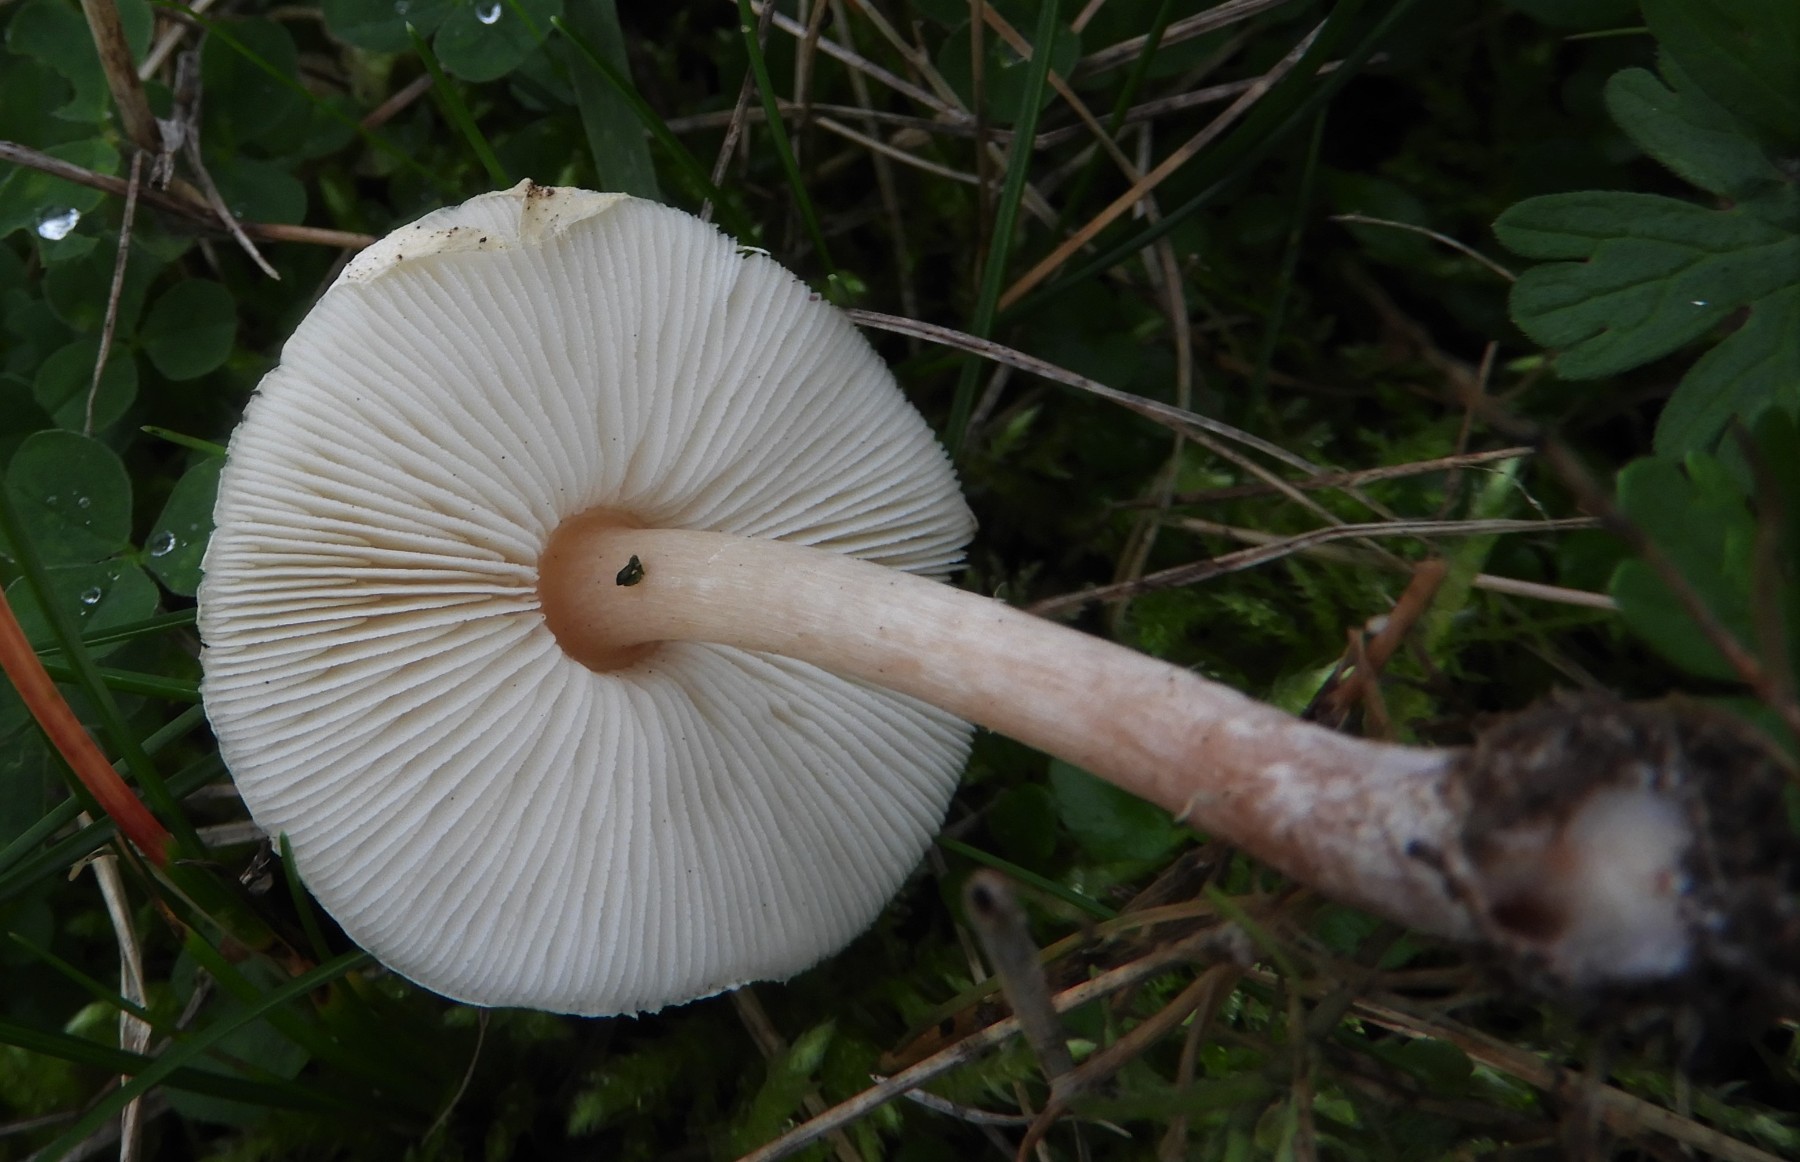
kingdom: Fungi
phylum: Basidiomycota
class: Agaricomycetes
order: Agaricales
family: Agaricaceae
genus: Lepiota
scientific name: Lepiota cristata
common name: stinkende parasolhat
